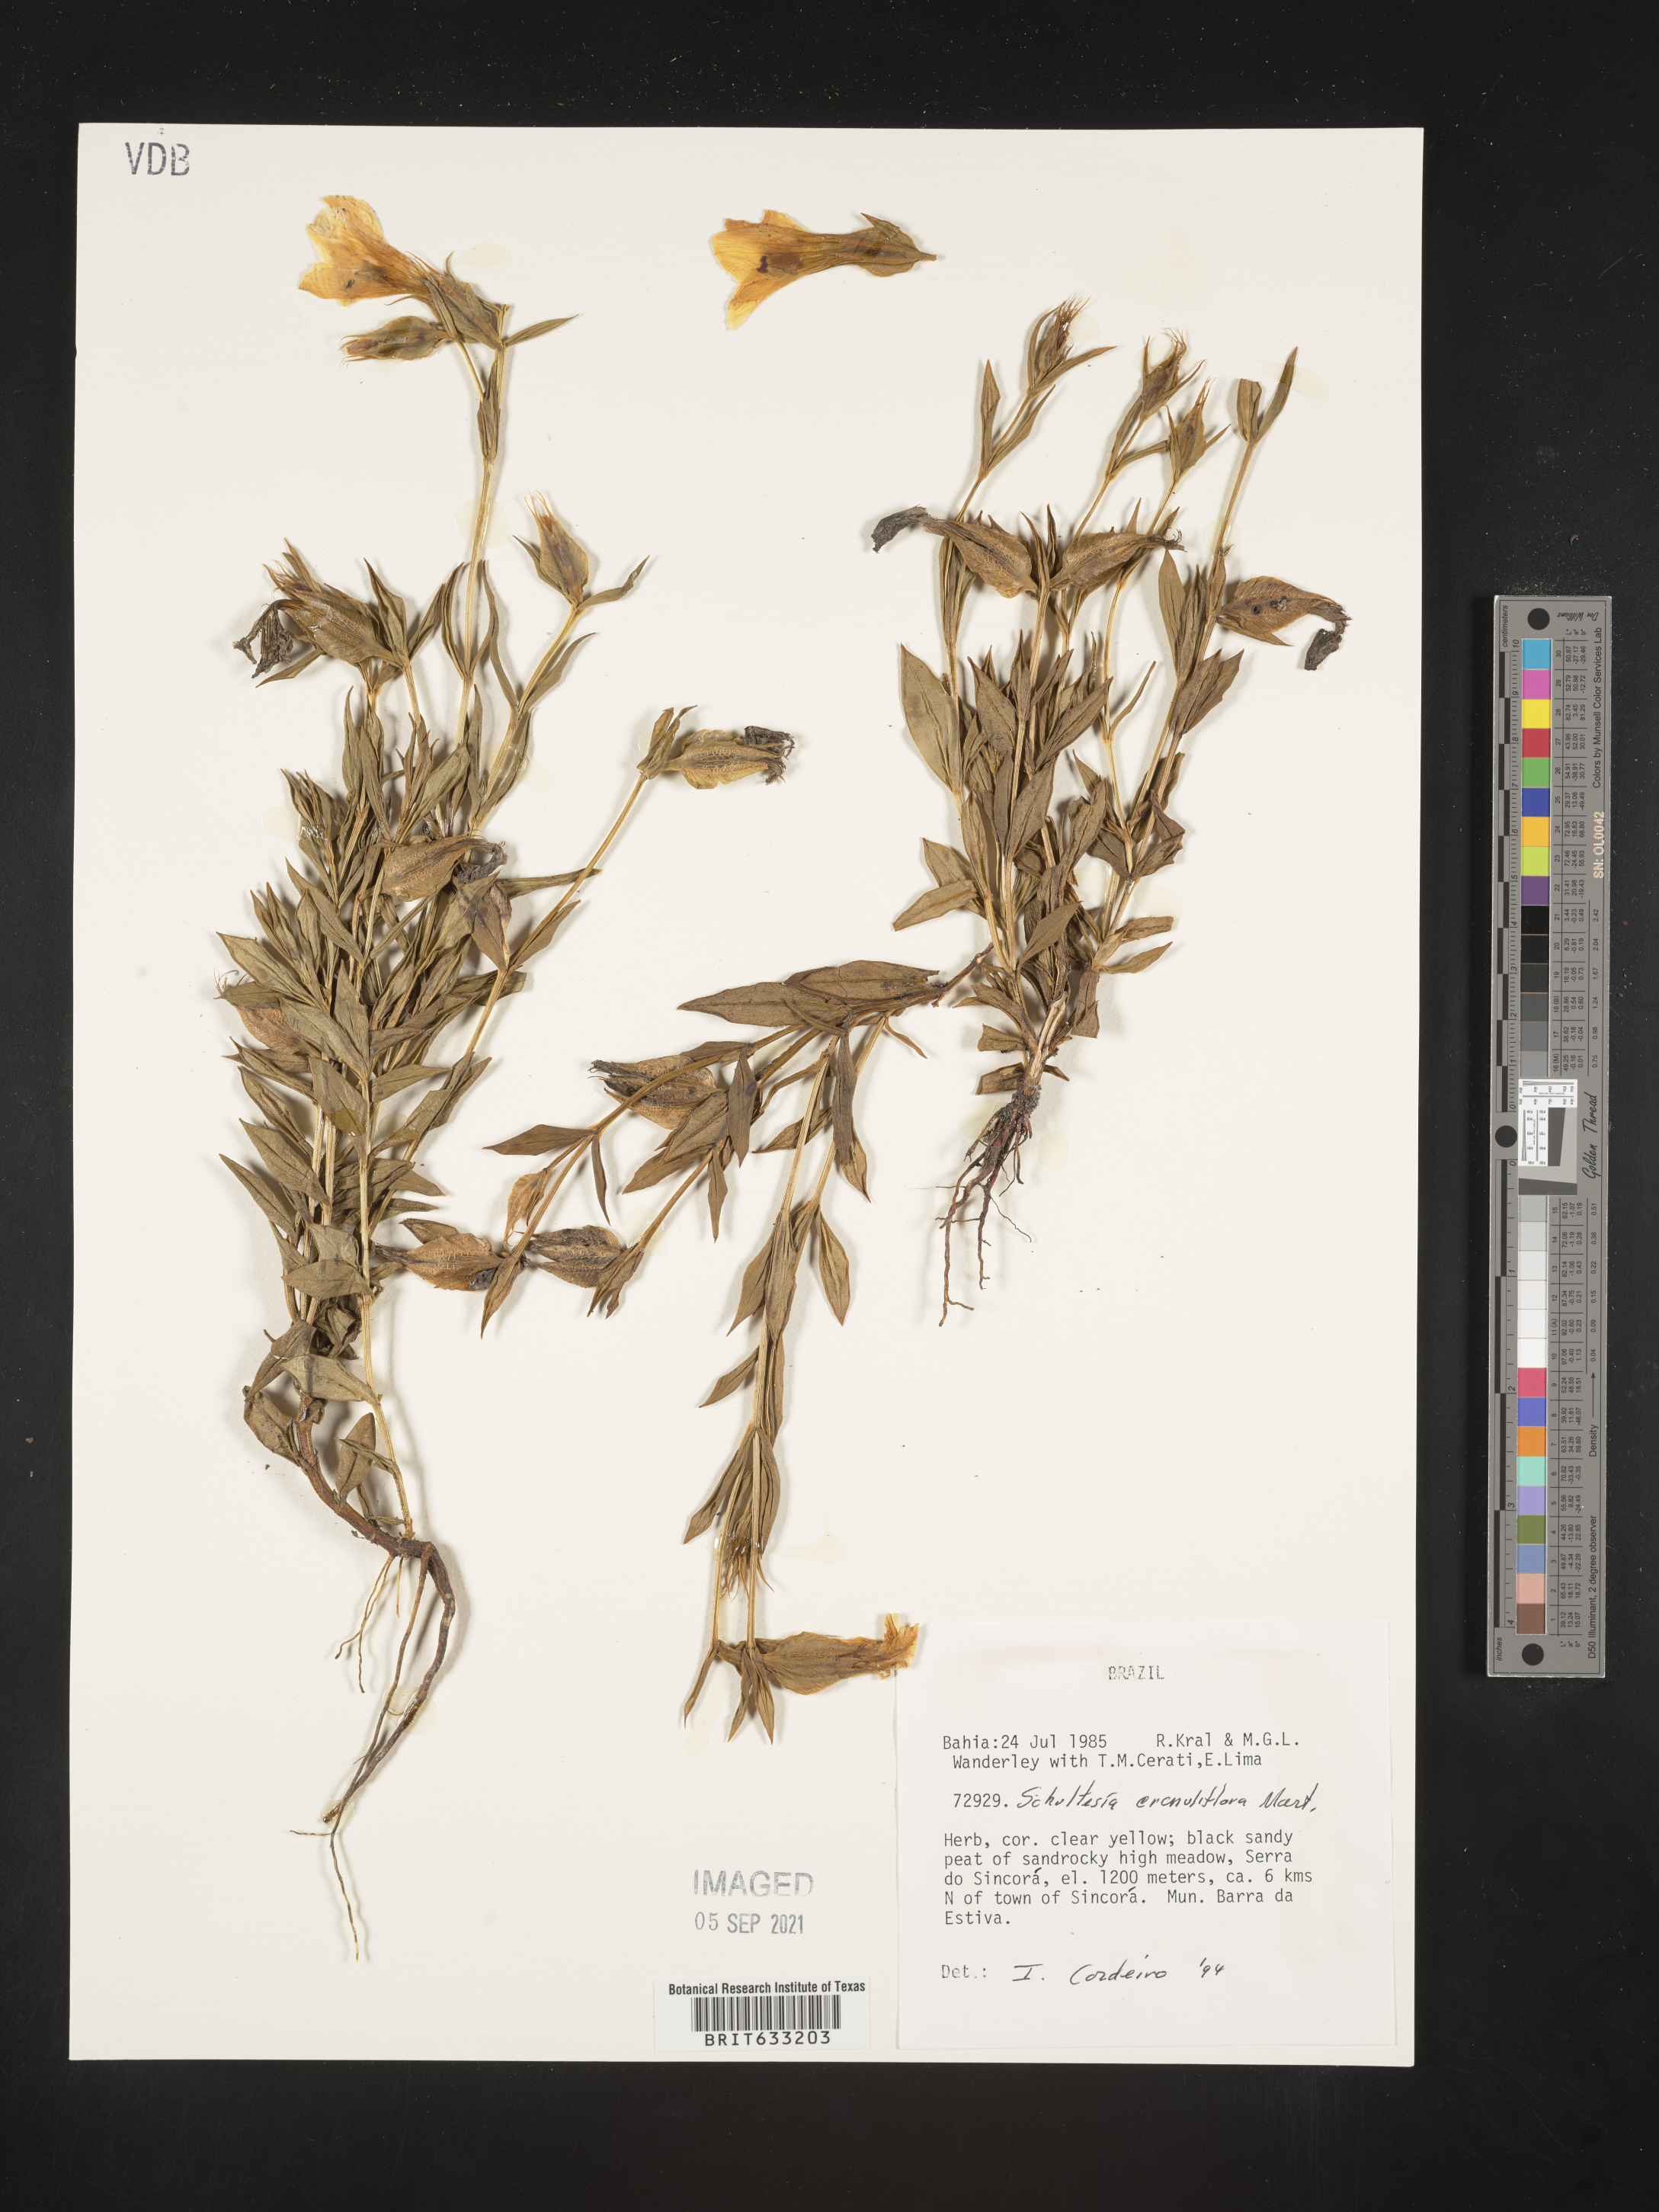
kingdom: Plantae
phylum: Tracheophyta
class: Magnoliopsida
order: Gentianales
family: Gentianaceae
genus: Schultesia
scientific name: Schultesia
